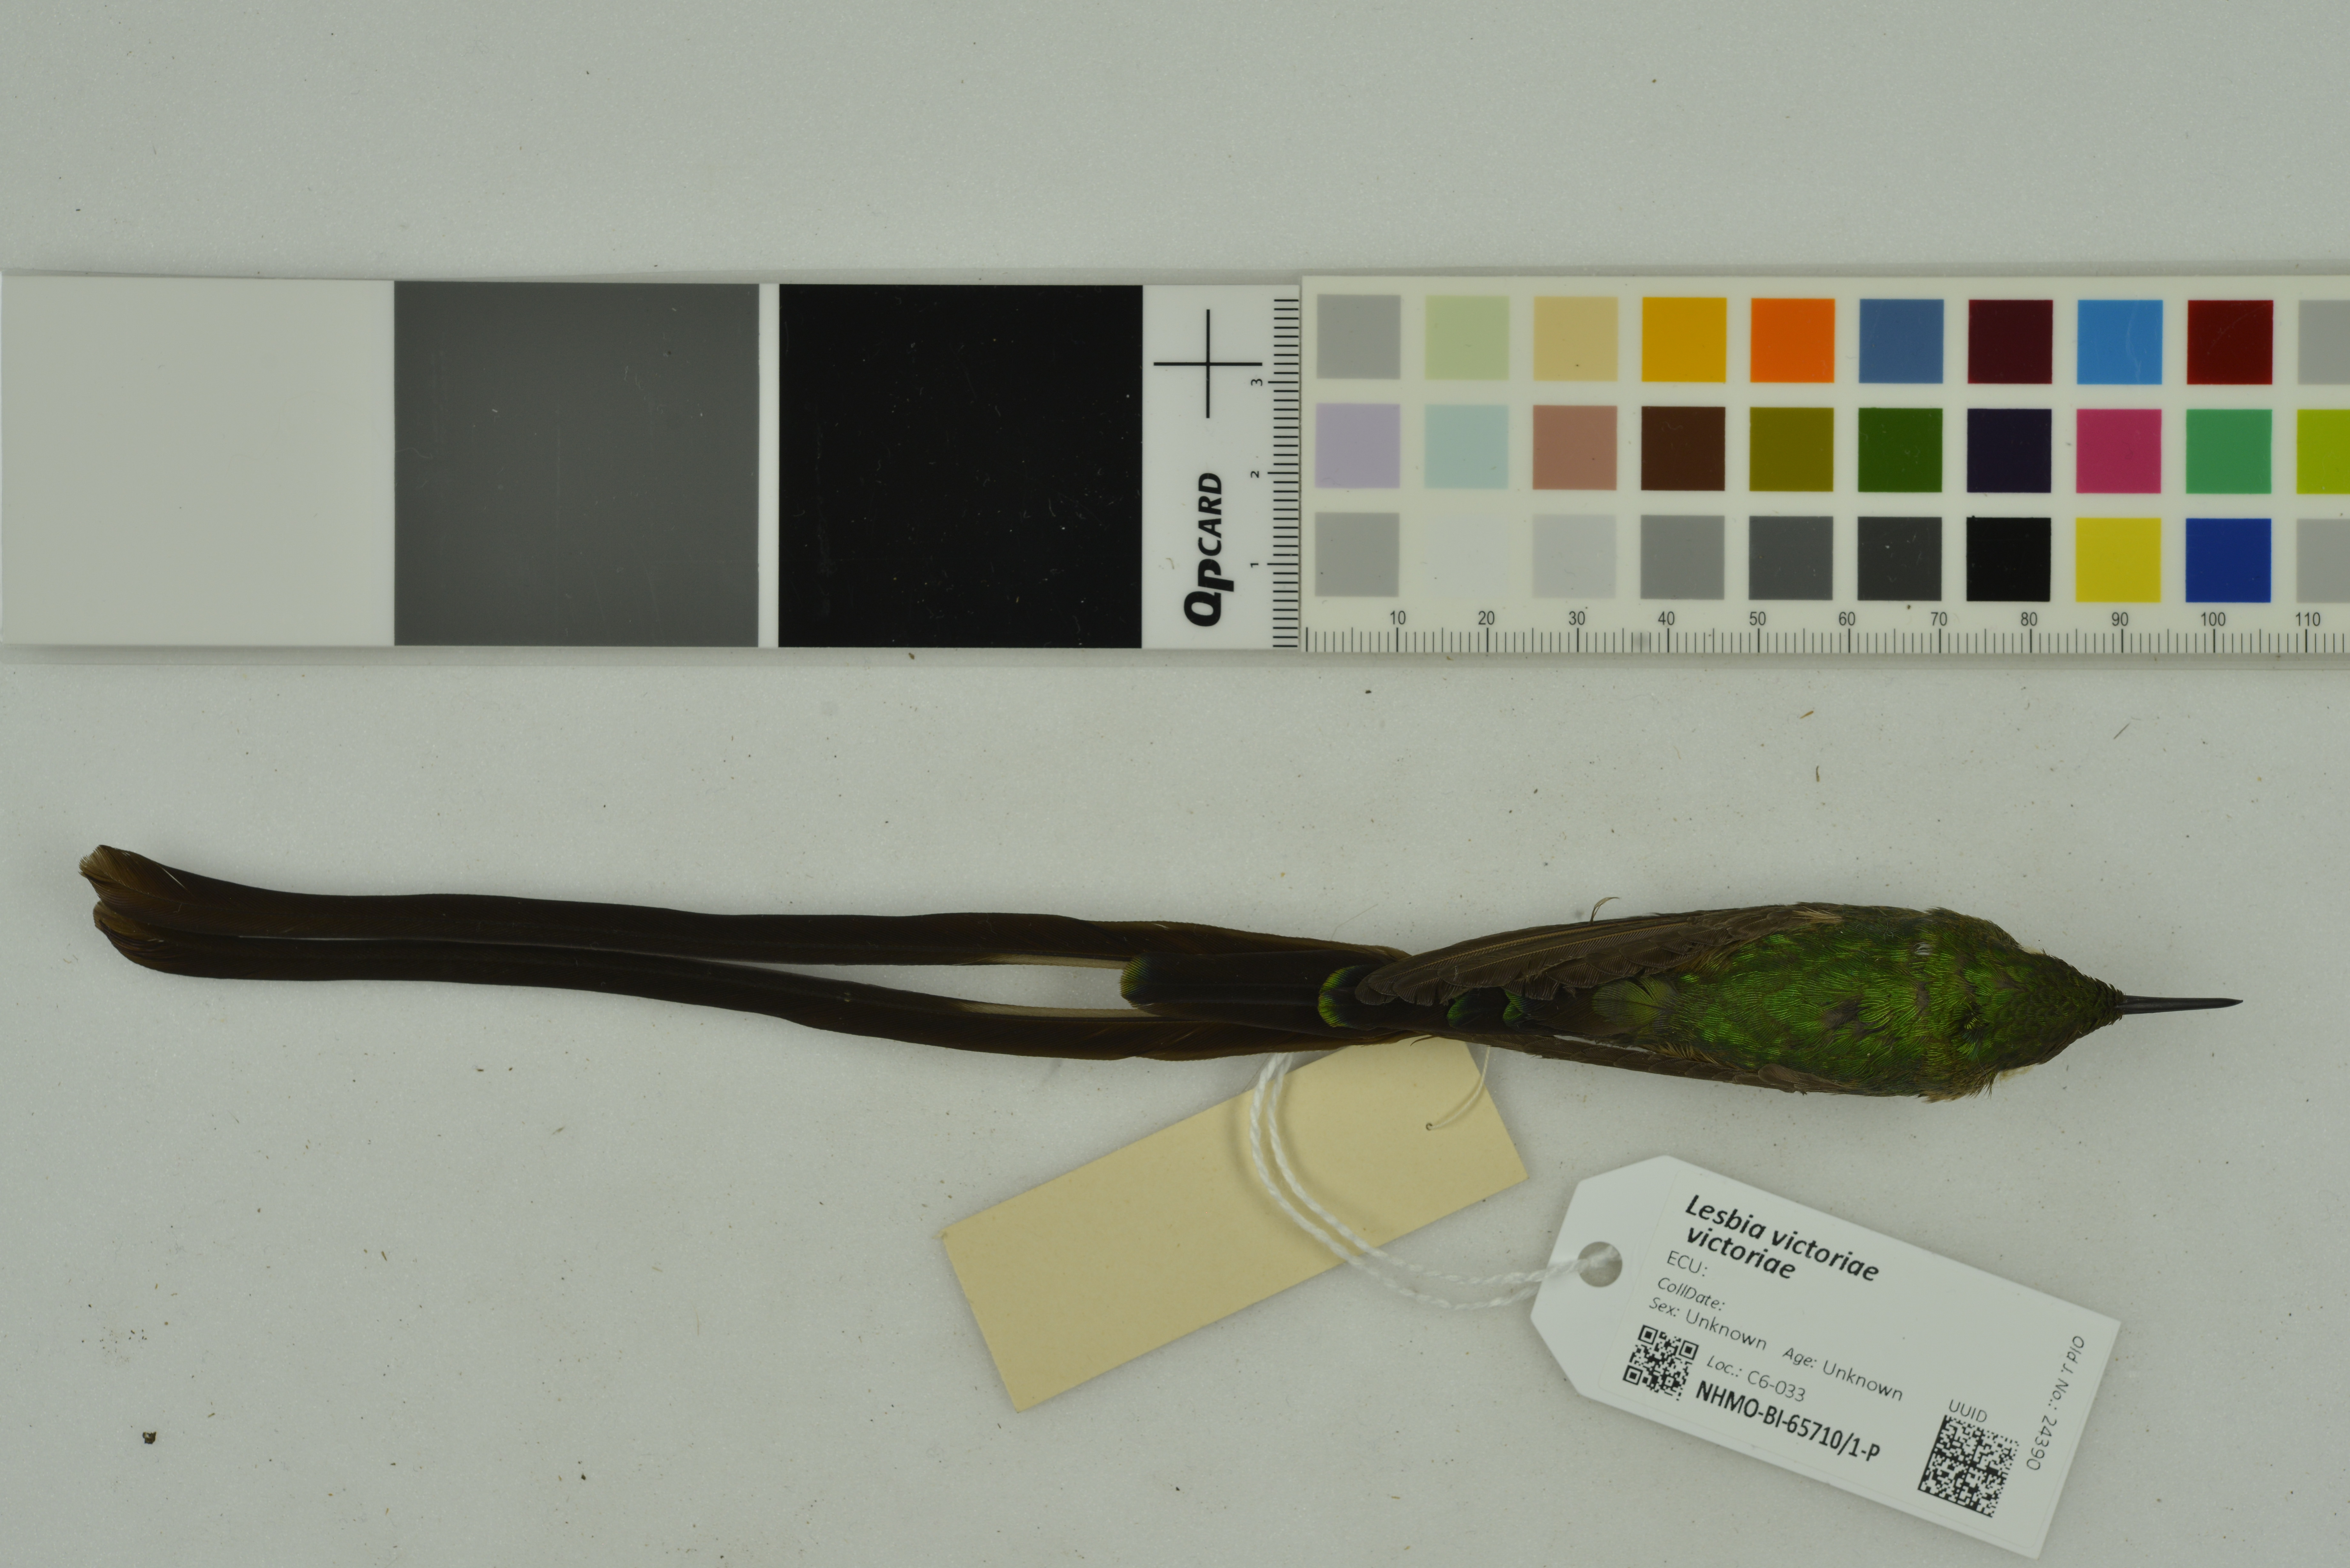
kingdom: Animalia
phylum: Chordata
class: Aves
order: Apodiformes
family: Trochilidae
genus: Lesbia
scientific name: Lesbia victoriae
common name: Black-tailed trainbearer
